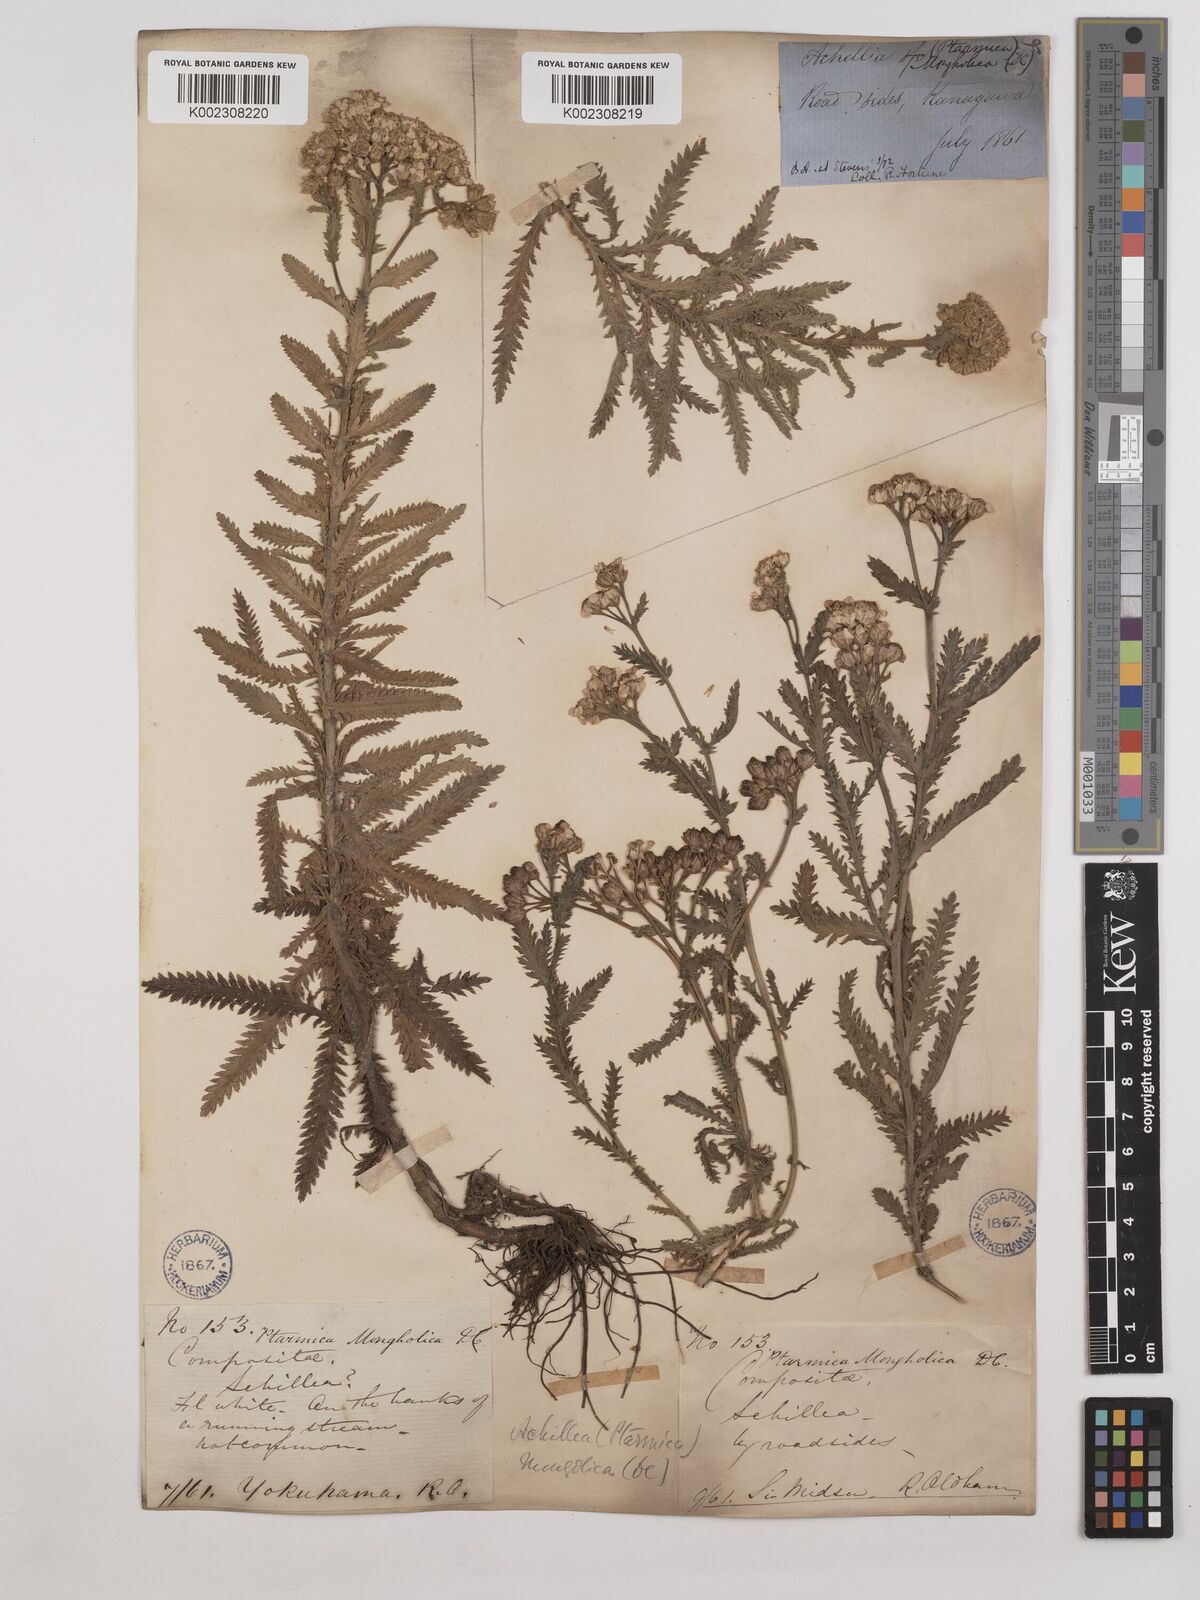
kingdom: Plantae
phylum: Tracheophyta
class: Magnoliopsida
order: Asterales
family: Asteraceae
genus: Achillea
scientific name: Achillea alpina
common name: Siberian yarrow
